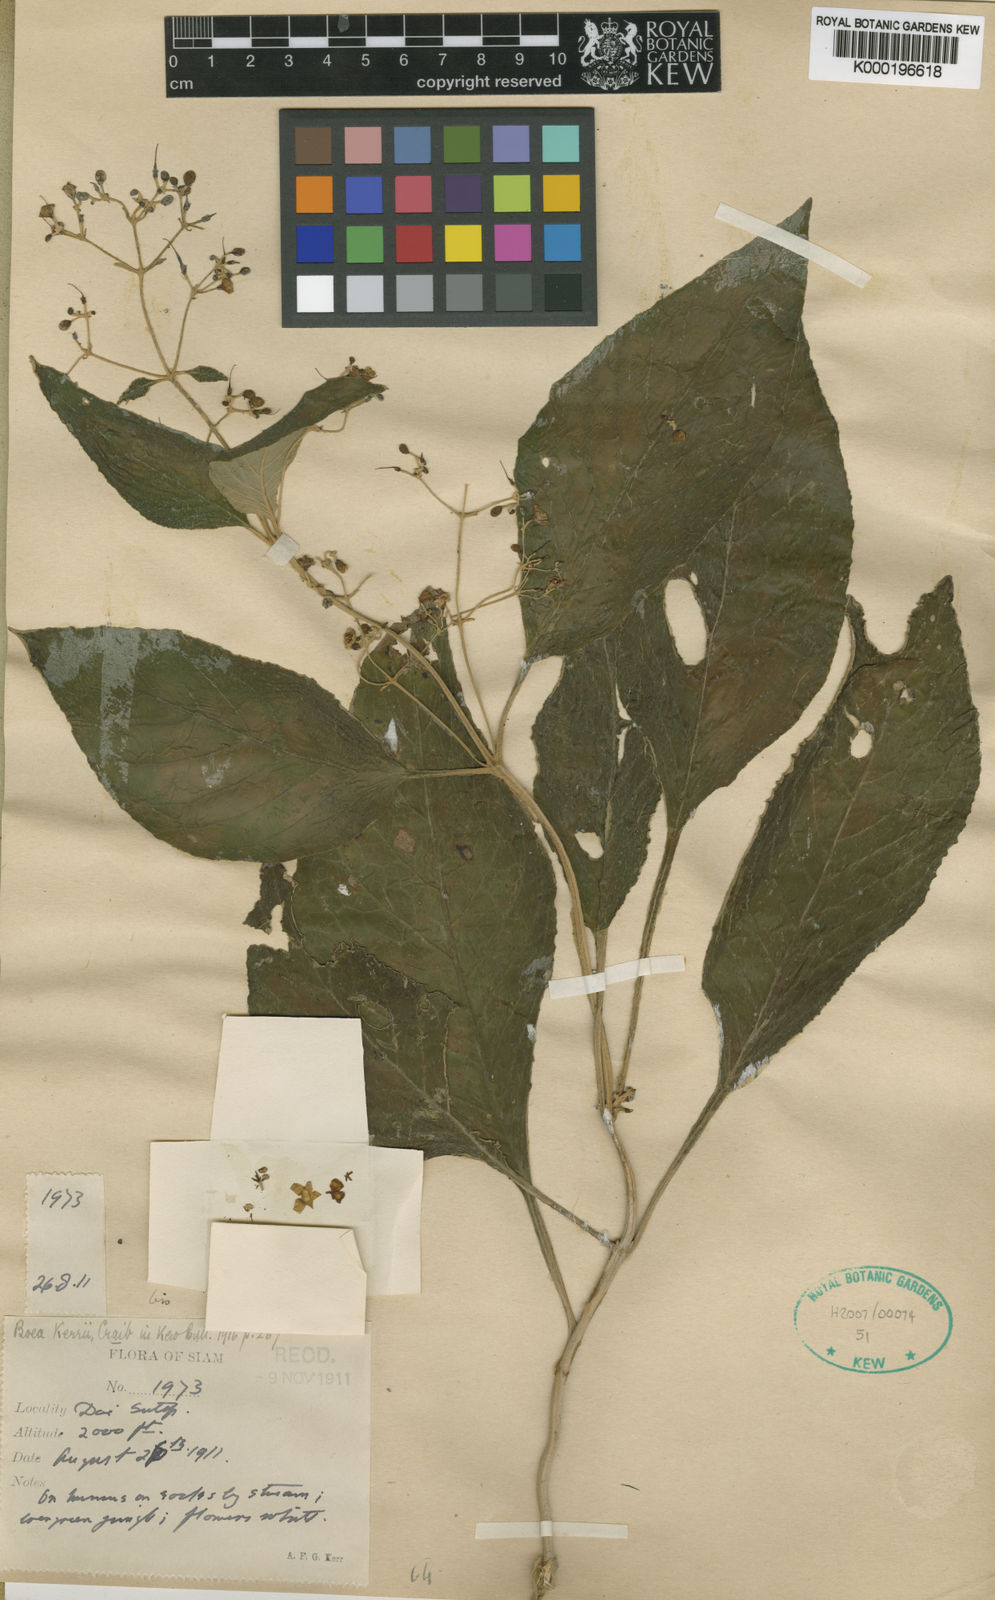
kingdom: Plantae
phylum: Tracheophyta
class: Magnoliopsida
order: Lamiales
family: Gesneriaceae
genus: Paraboea
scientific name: Paraboea swinhoei
